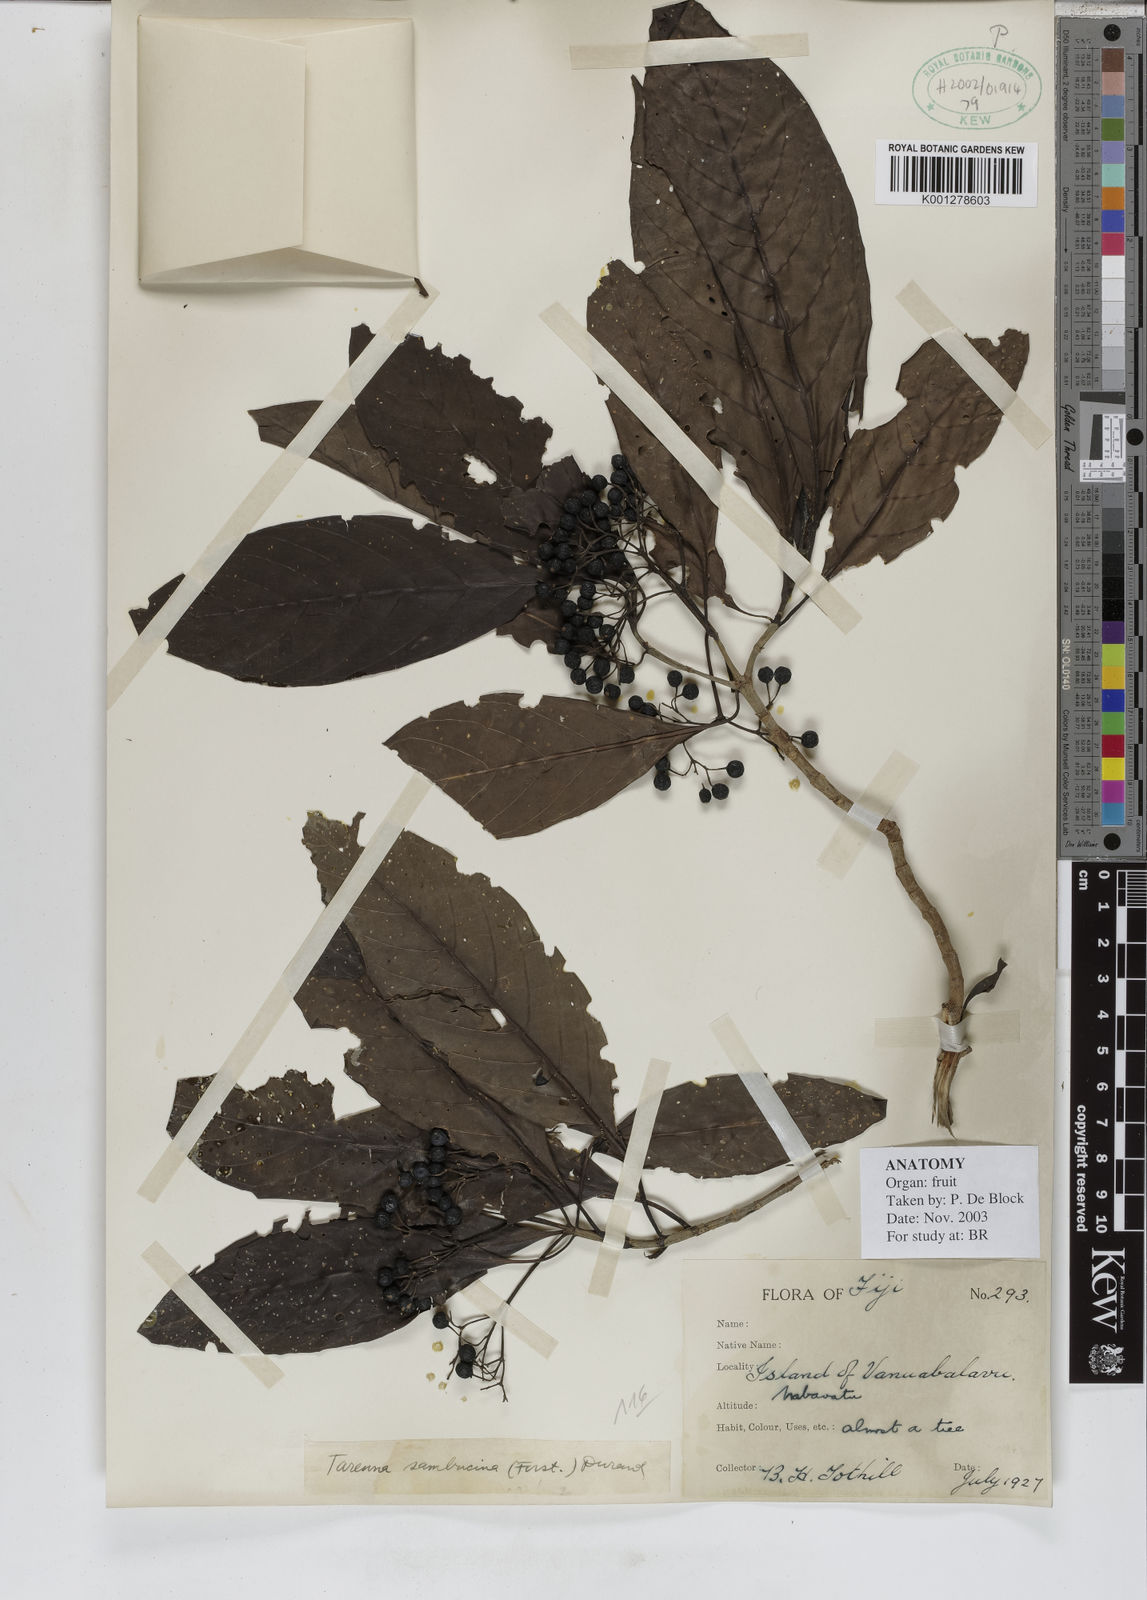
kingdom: Plantae
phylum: Tracheophyta
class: Magnoliopsida
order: Gentianales
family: Rubiaceae
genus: Tarenna
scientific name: Tarenna sambucina
